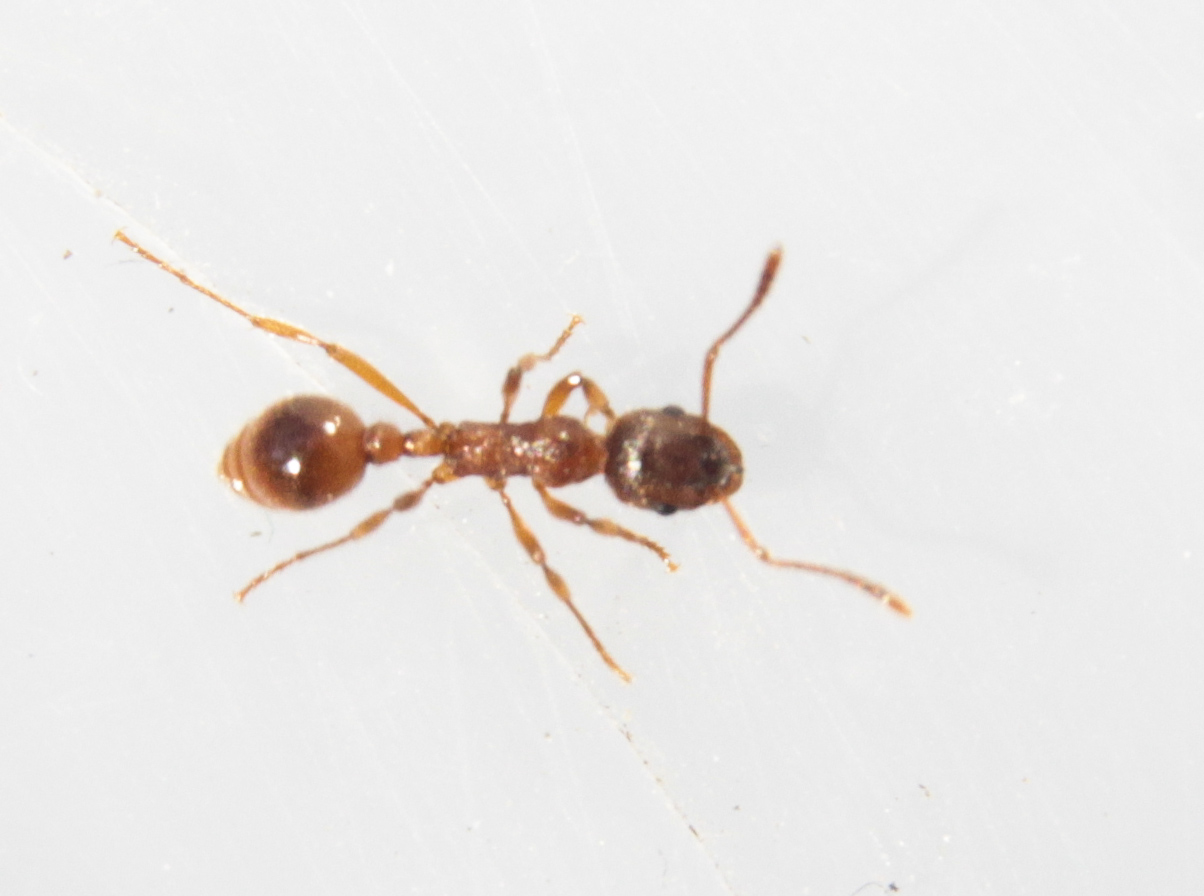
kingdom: Animalia
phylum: Arthropoda
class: Insecta
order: Hymenoptera
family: Formicidae
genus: Myrmica
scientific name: Myrmica
